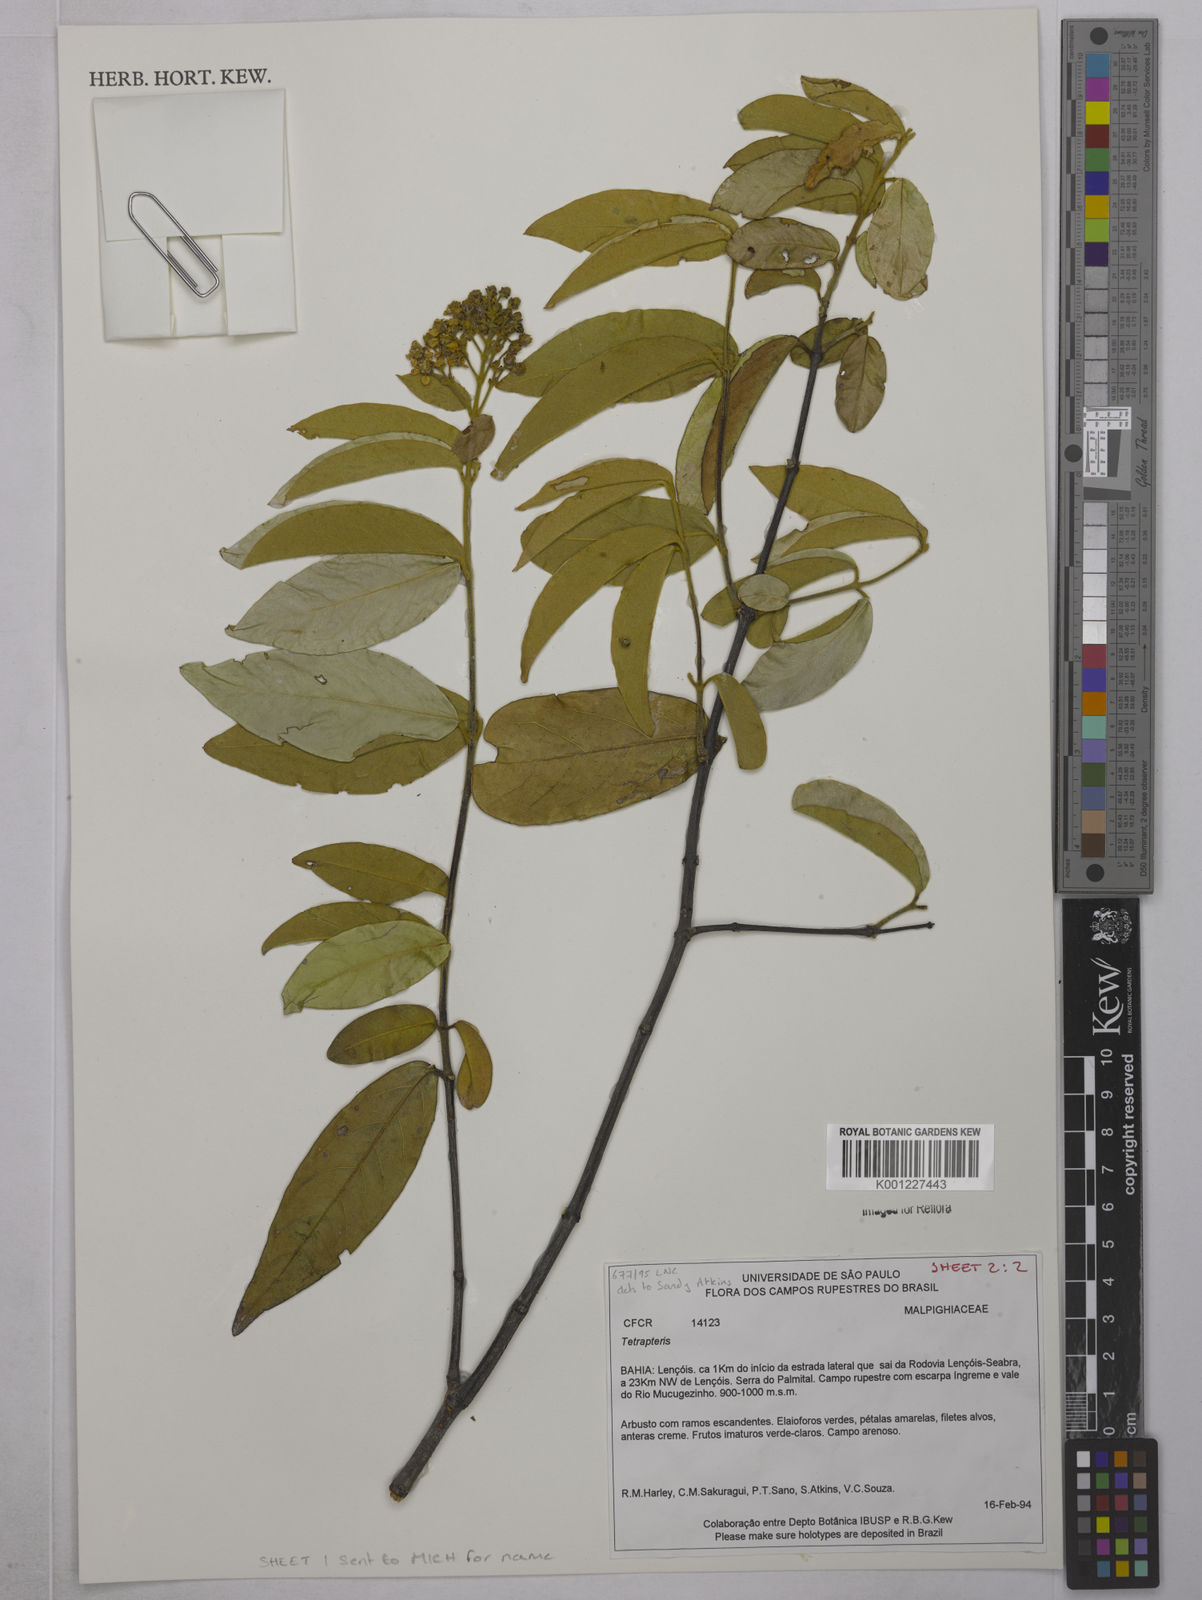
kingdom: Plantae
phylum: Tracheophyta
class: Magnoliopsida
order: Malpighiales
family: Malpighiaceae
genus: Tetrapterys
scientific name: Tetrapterys
